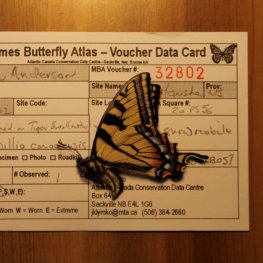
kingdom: Animalia
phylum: Arthropoda
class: Insecta
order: Lepidoptera
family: Papilionidae
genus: Pterourus
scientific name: Pterourus canadensis
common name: Canadian Tiger Swallowtail
